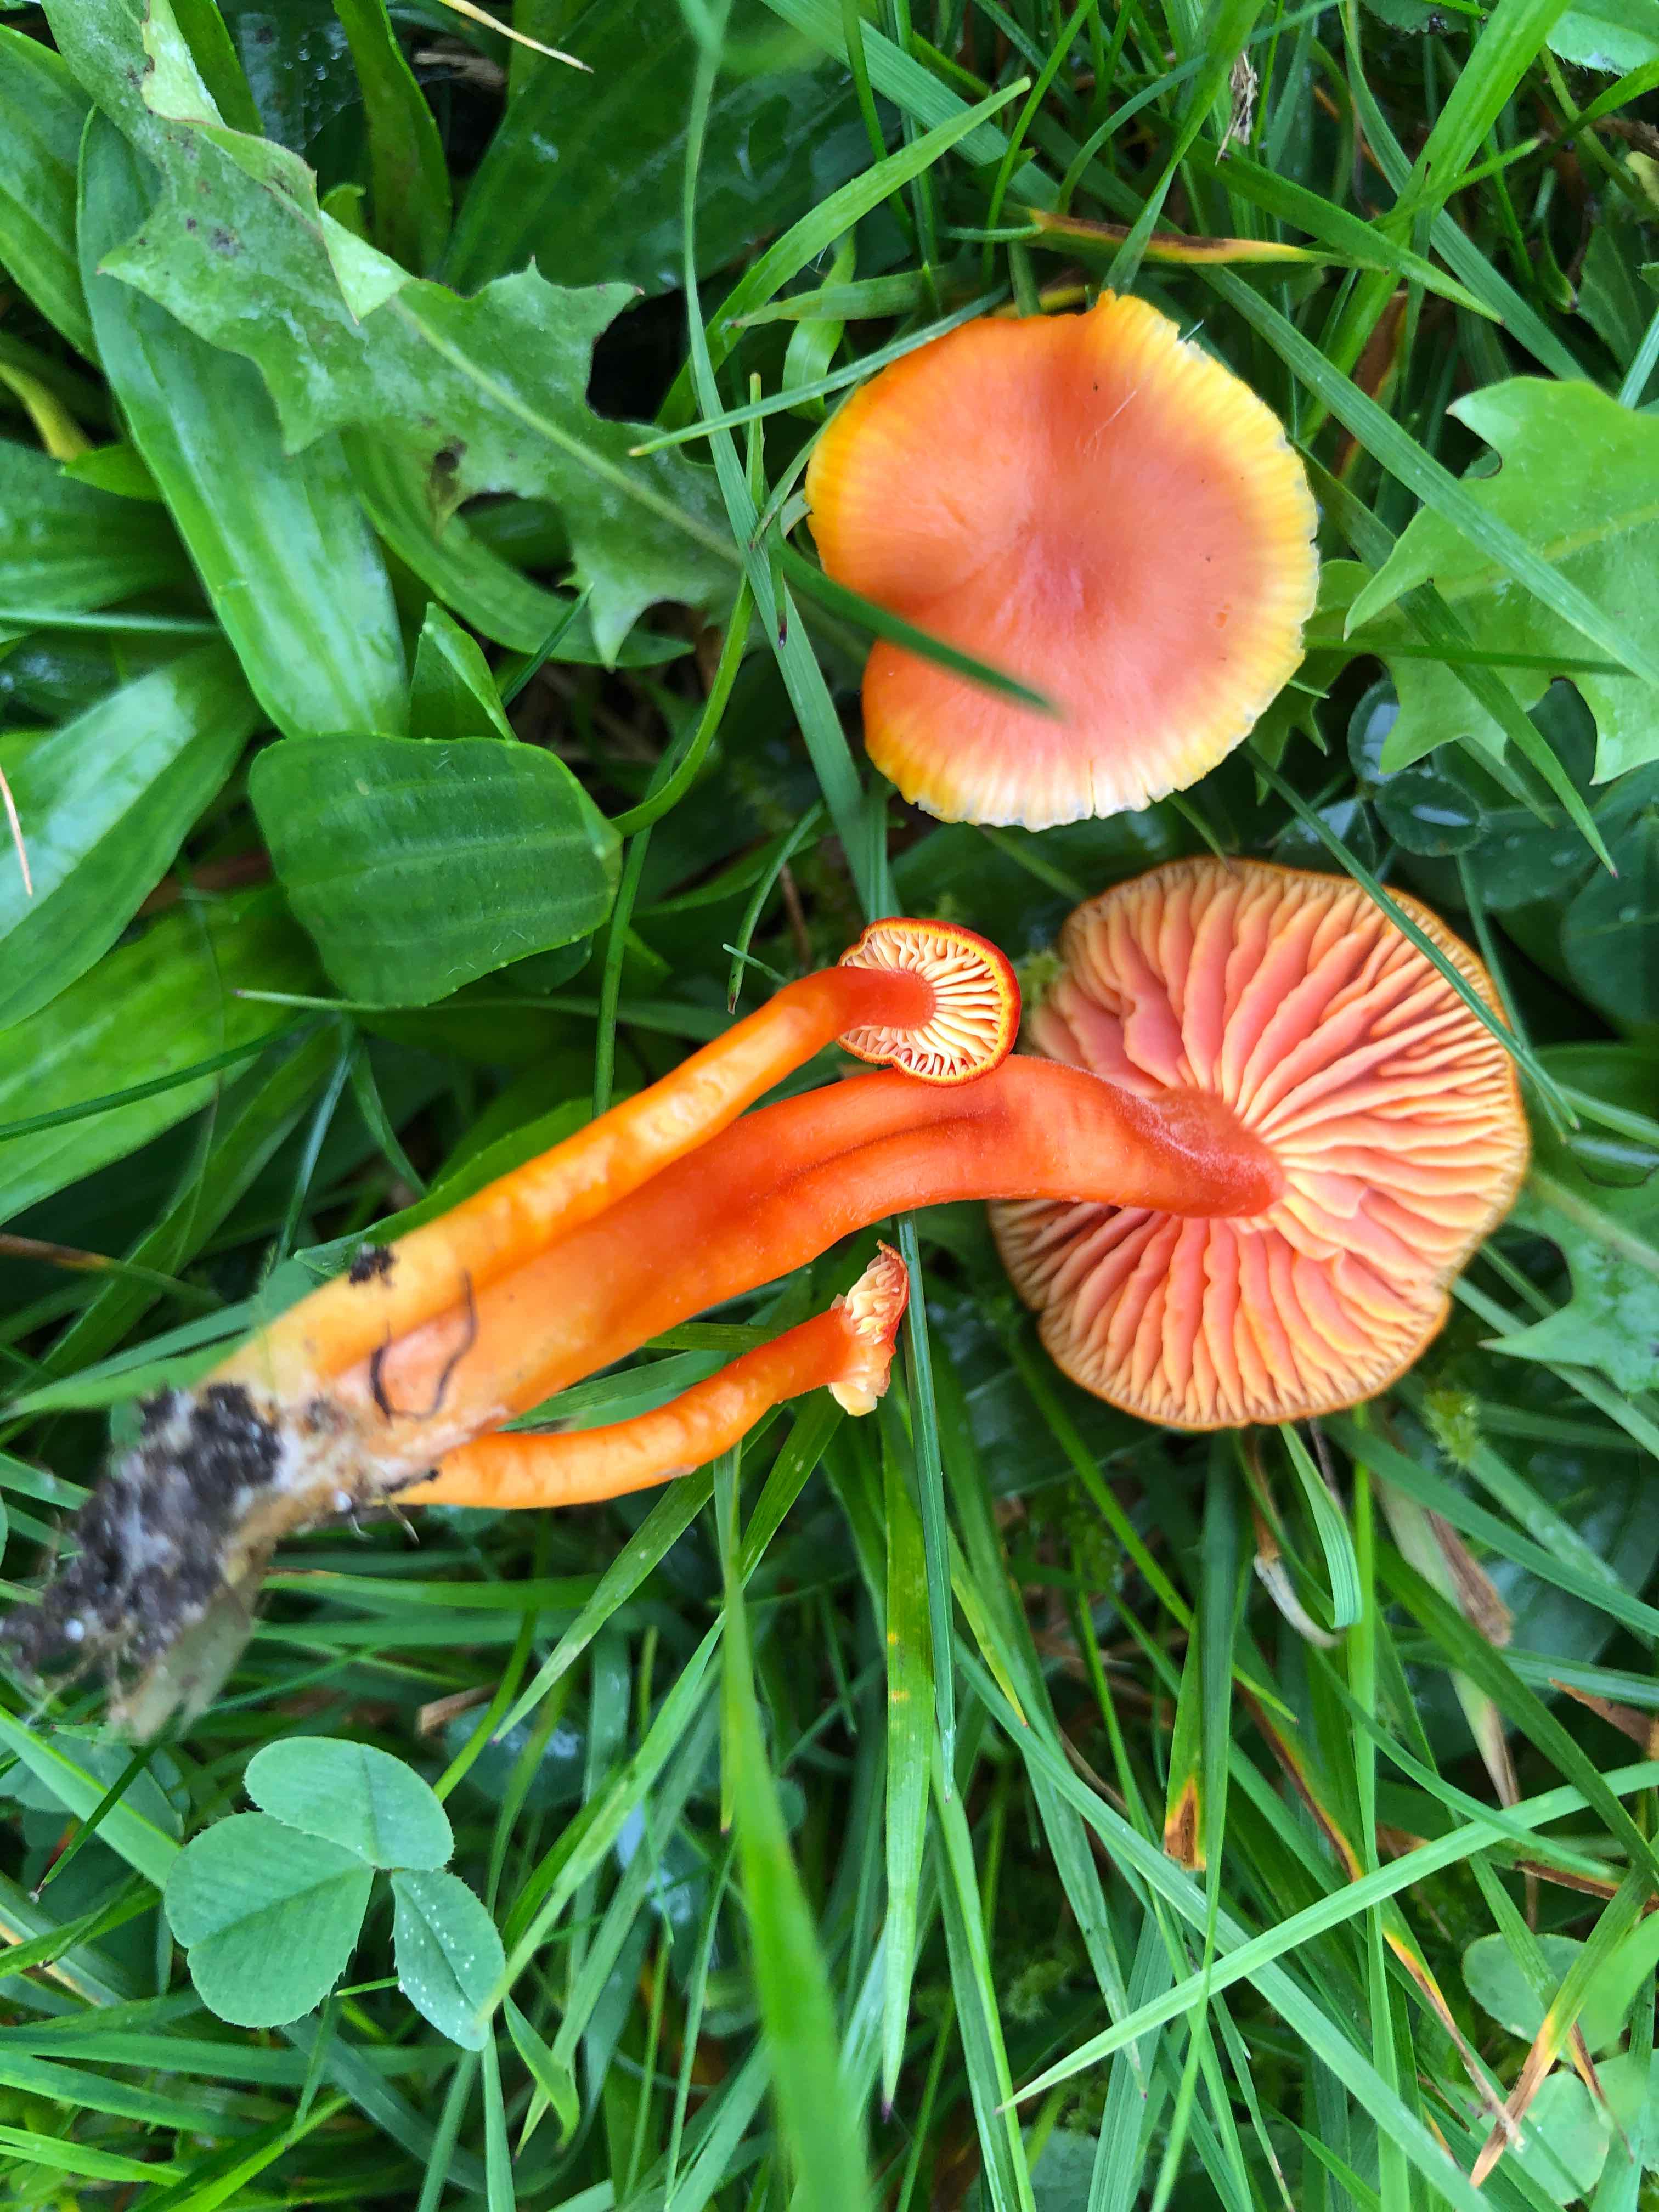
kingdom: Fungi
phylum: Basidiomycota
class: Agaricomycetes
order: Agaricales
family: Hygrophoraceae
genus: Hygrocybe
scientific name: Hygrocybe miniata
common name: mønje-vokshat
